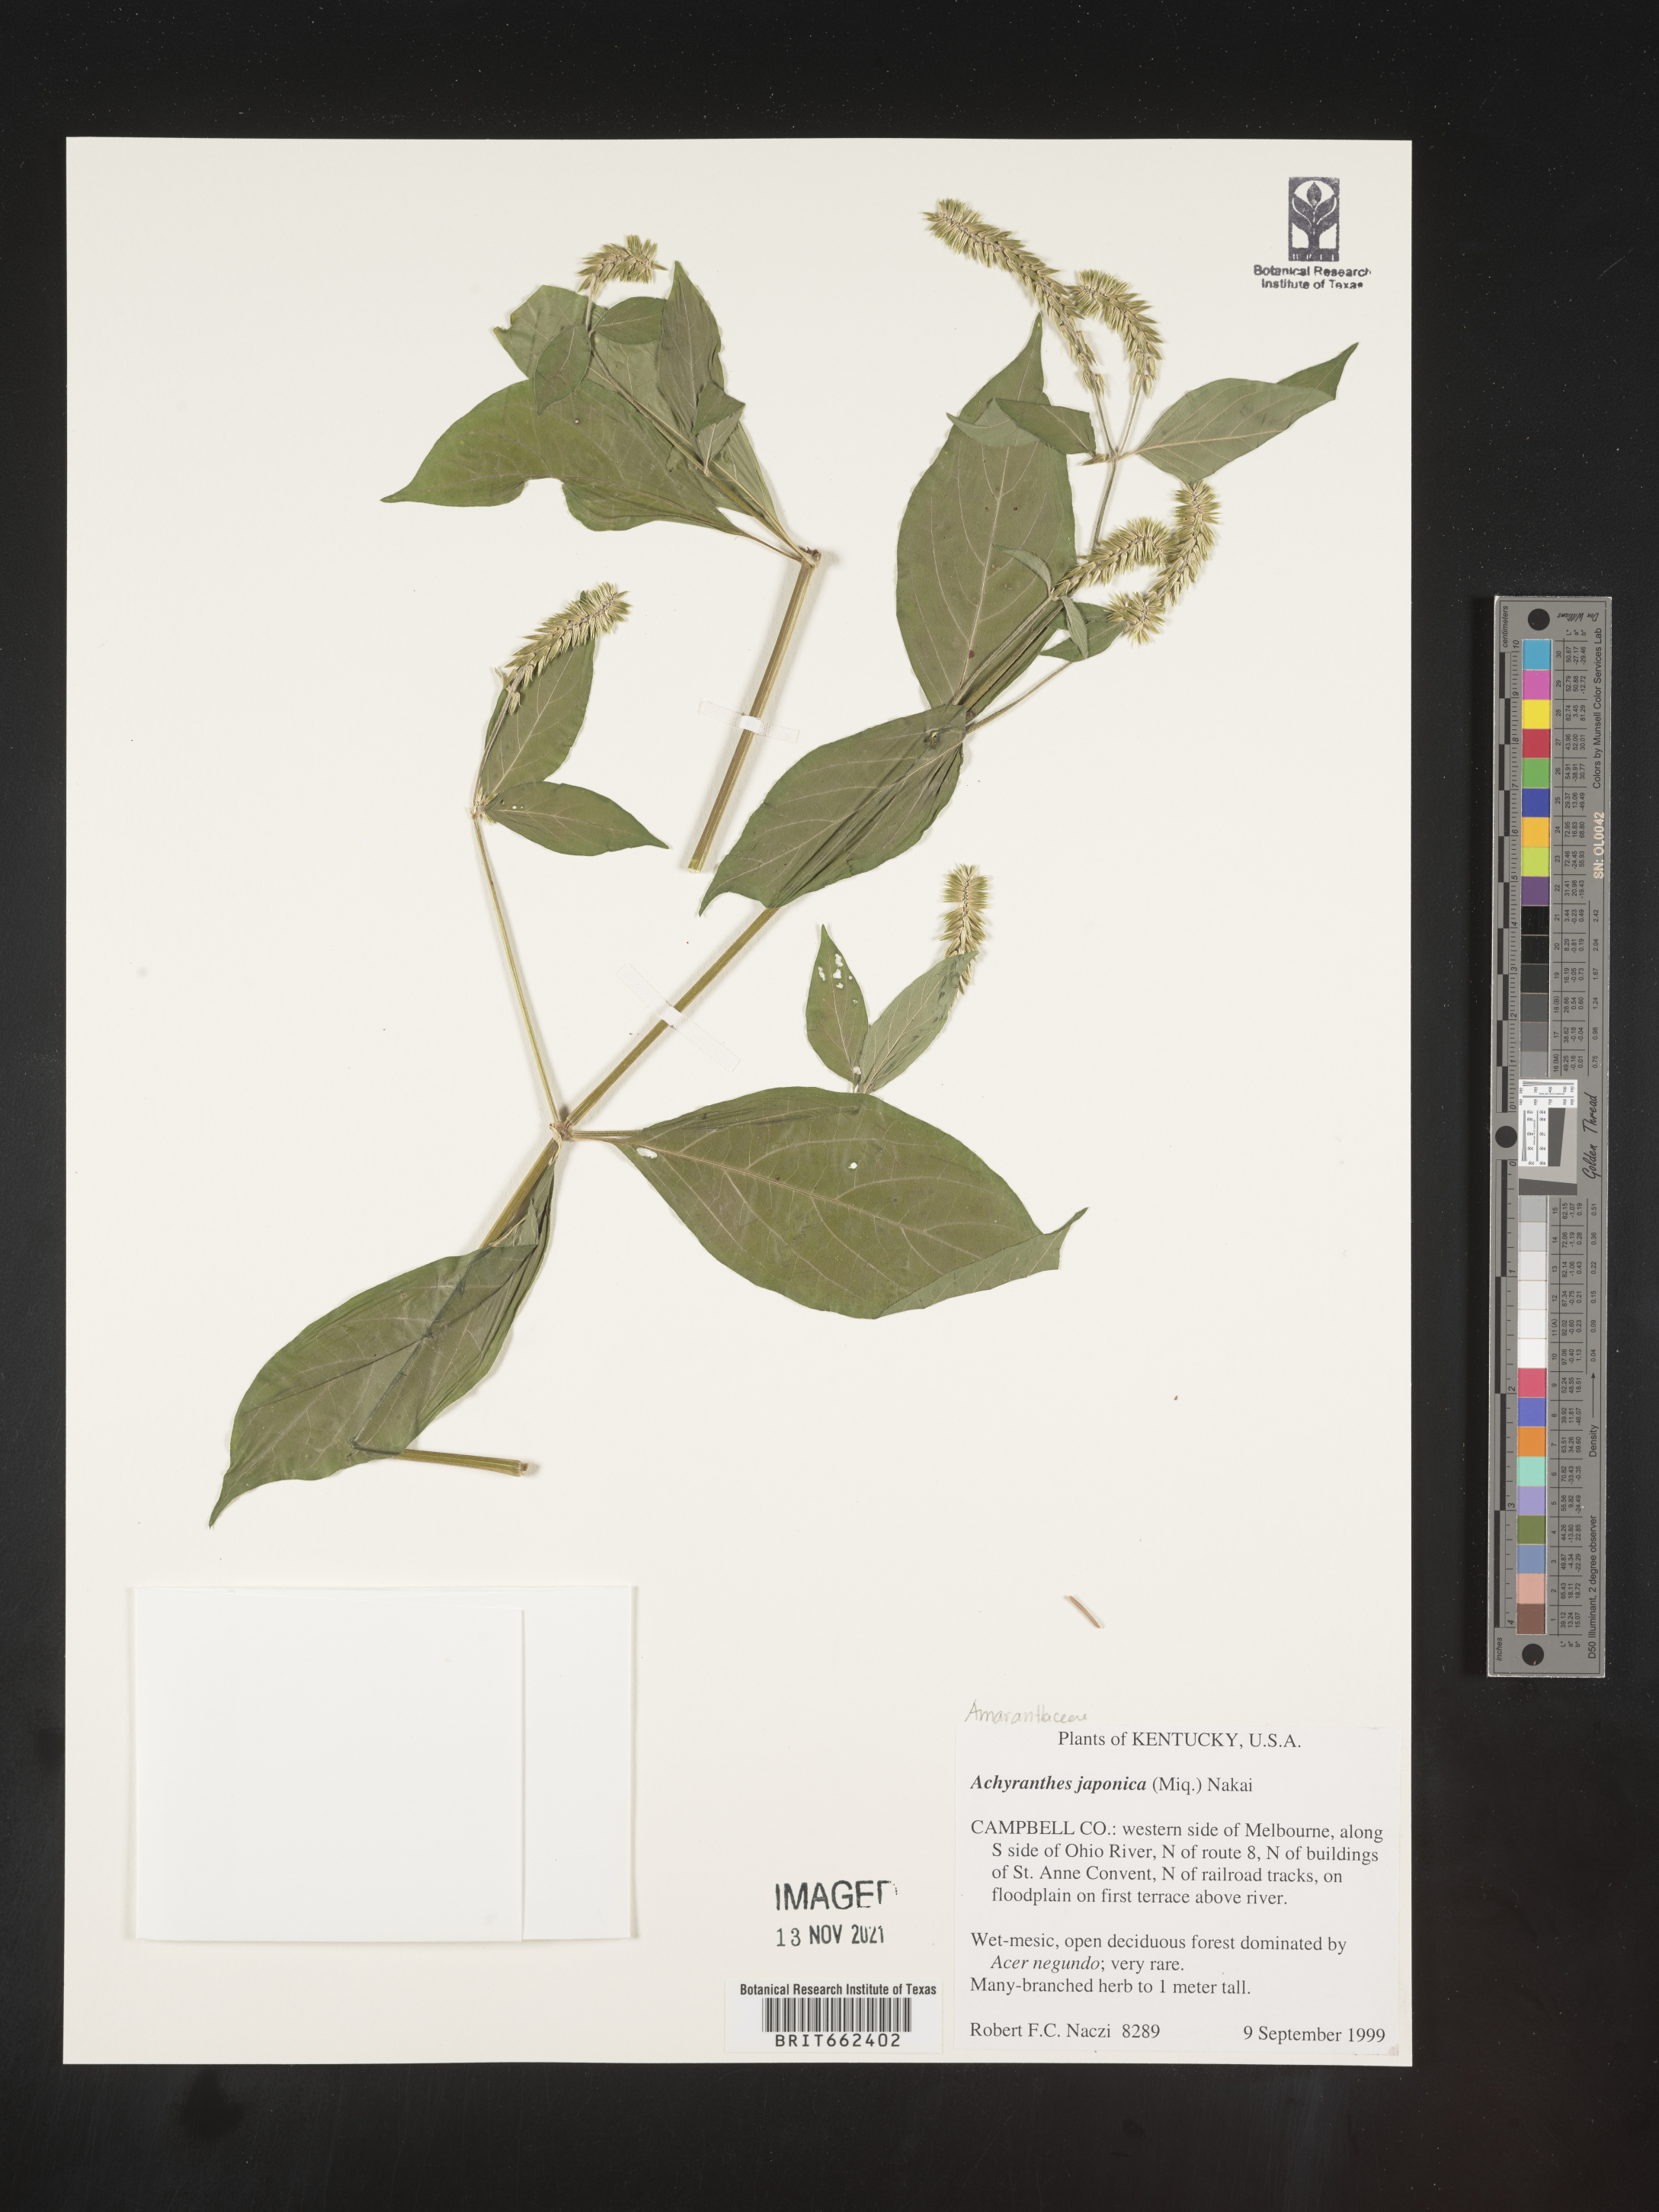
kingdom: Plantae
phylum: Tracheophyta
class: Magnoliopsida
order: Caryophyllales
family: Amaranthaceae
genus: Achyranthes
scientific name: Achyranthes
